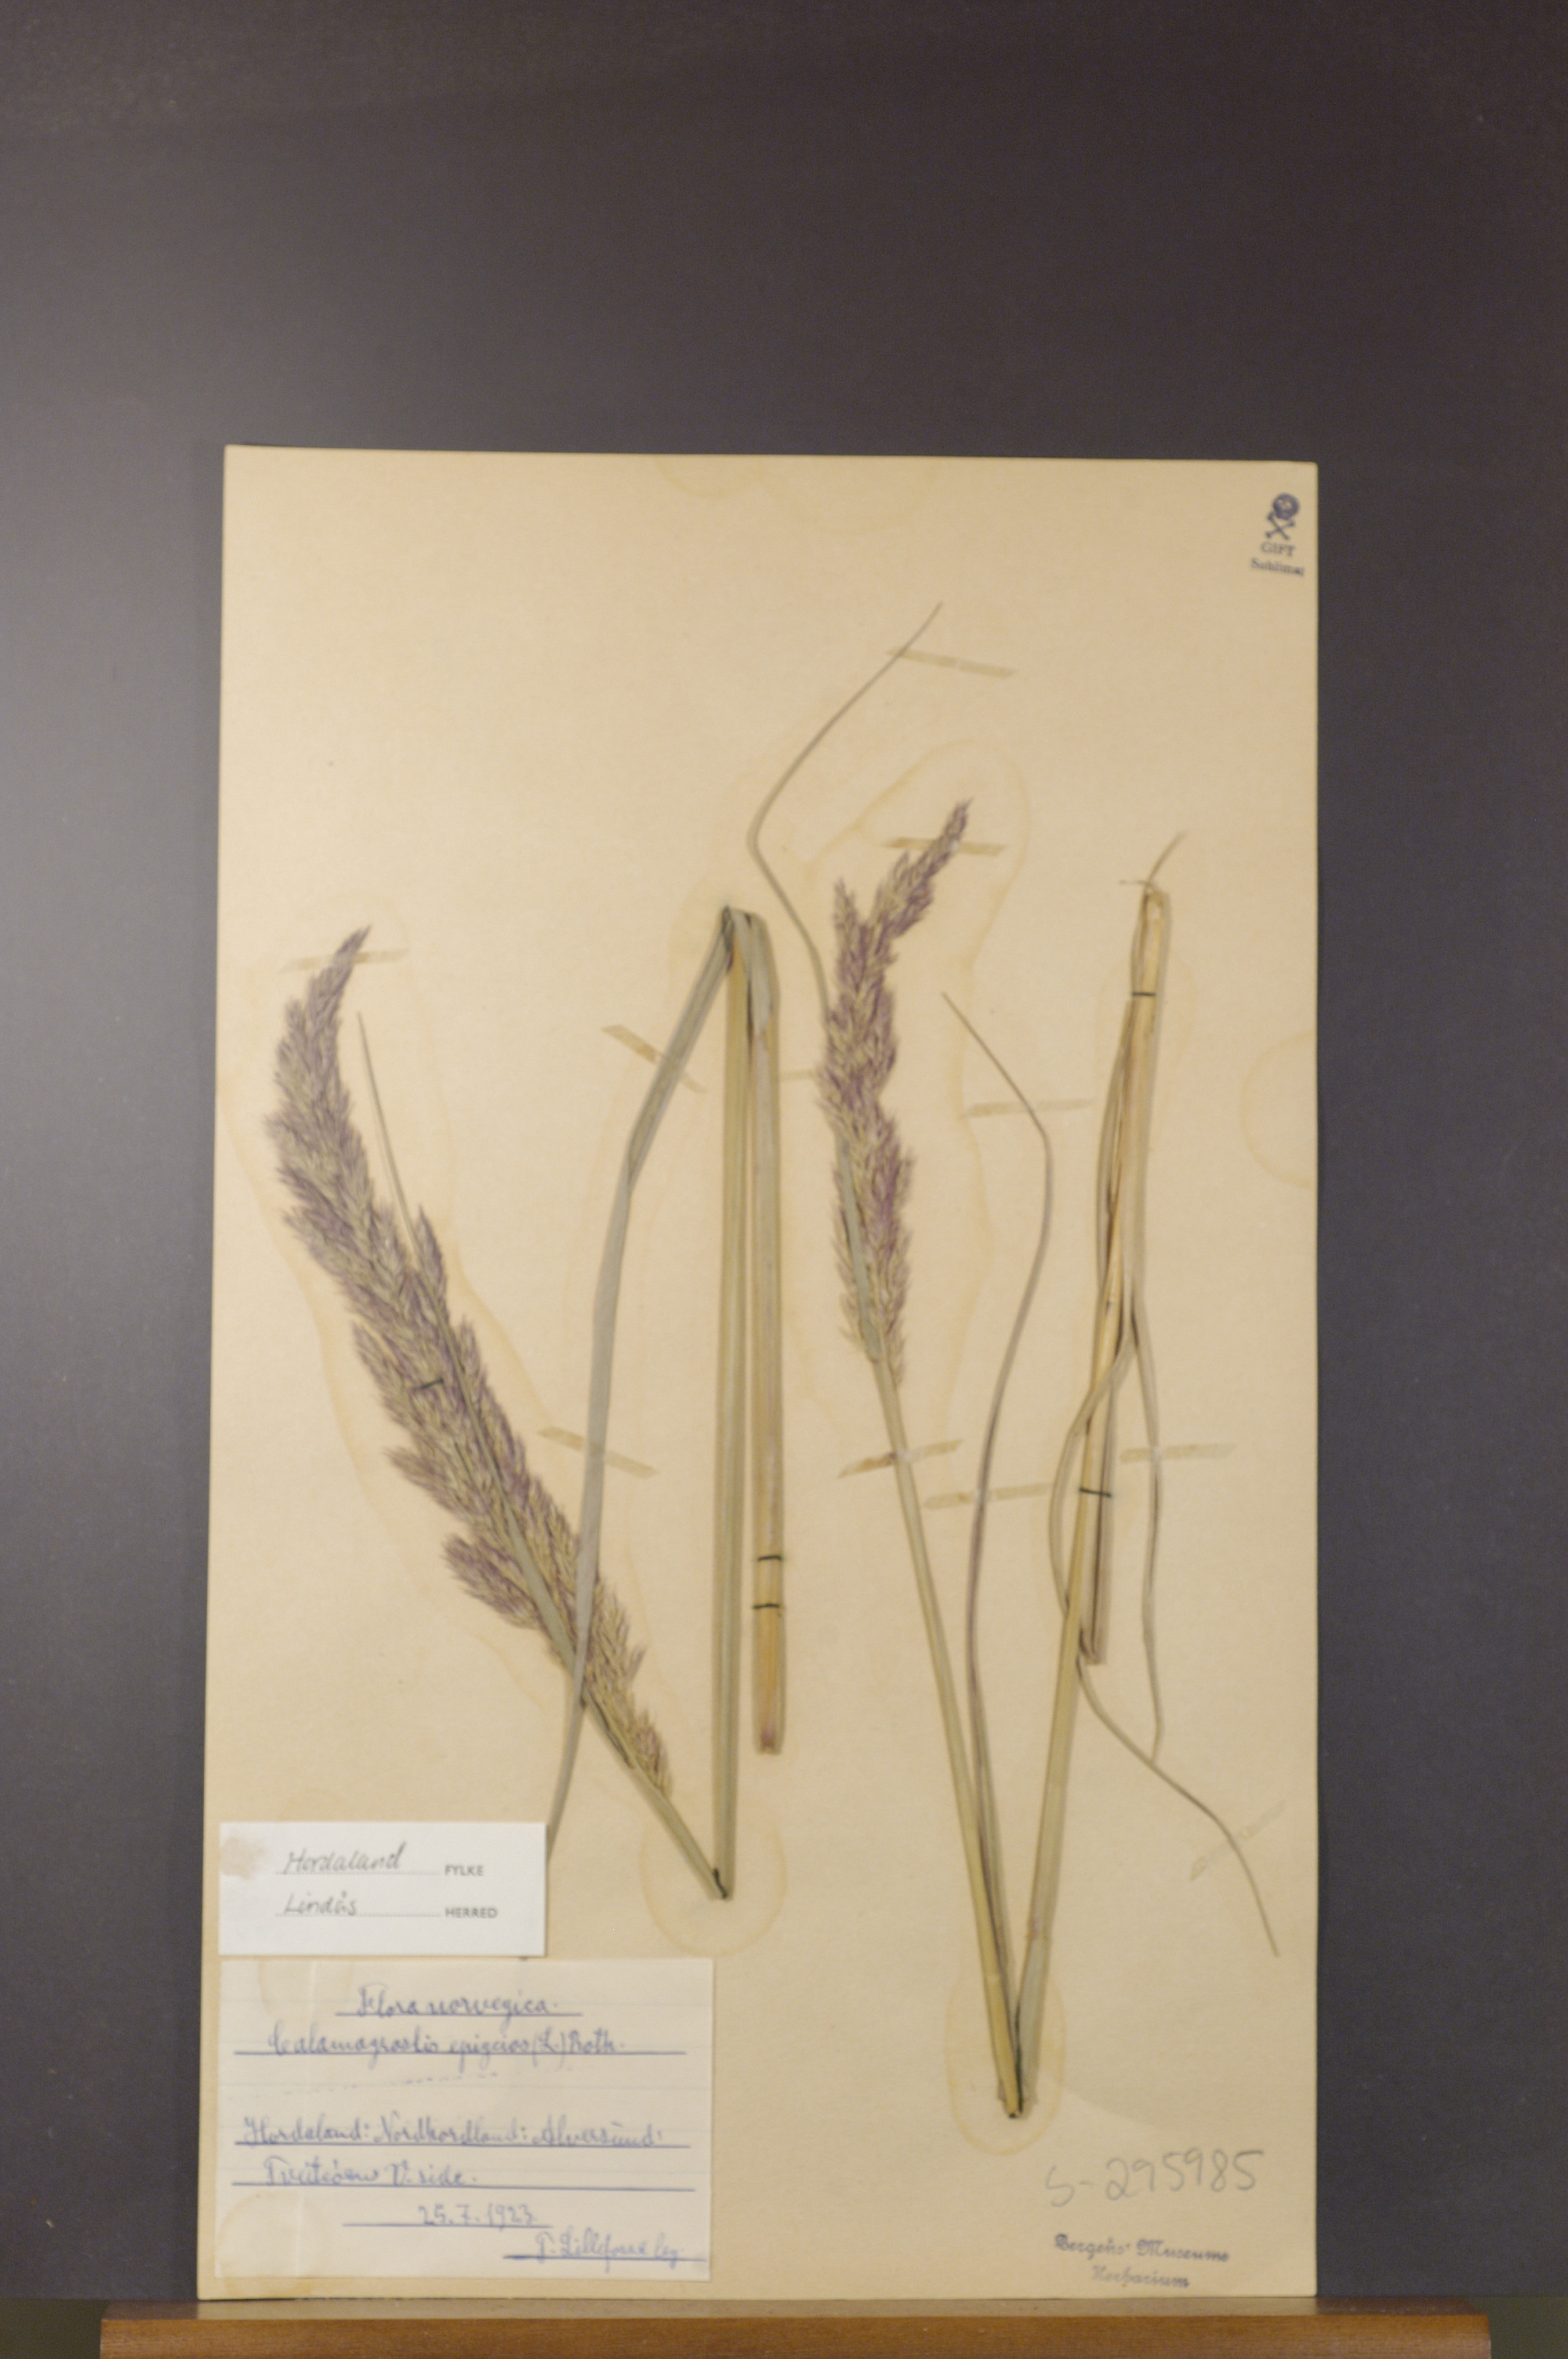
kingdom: Plantae
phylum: Tracheophyta
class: Liliopsida
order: Poales
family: Poaceae
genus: Calamagrostis
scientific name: Calamagrostis epigejos
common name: Wood small-reed
